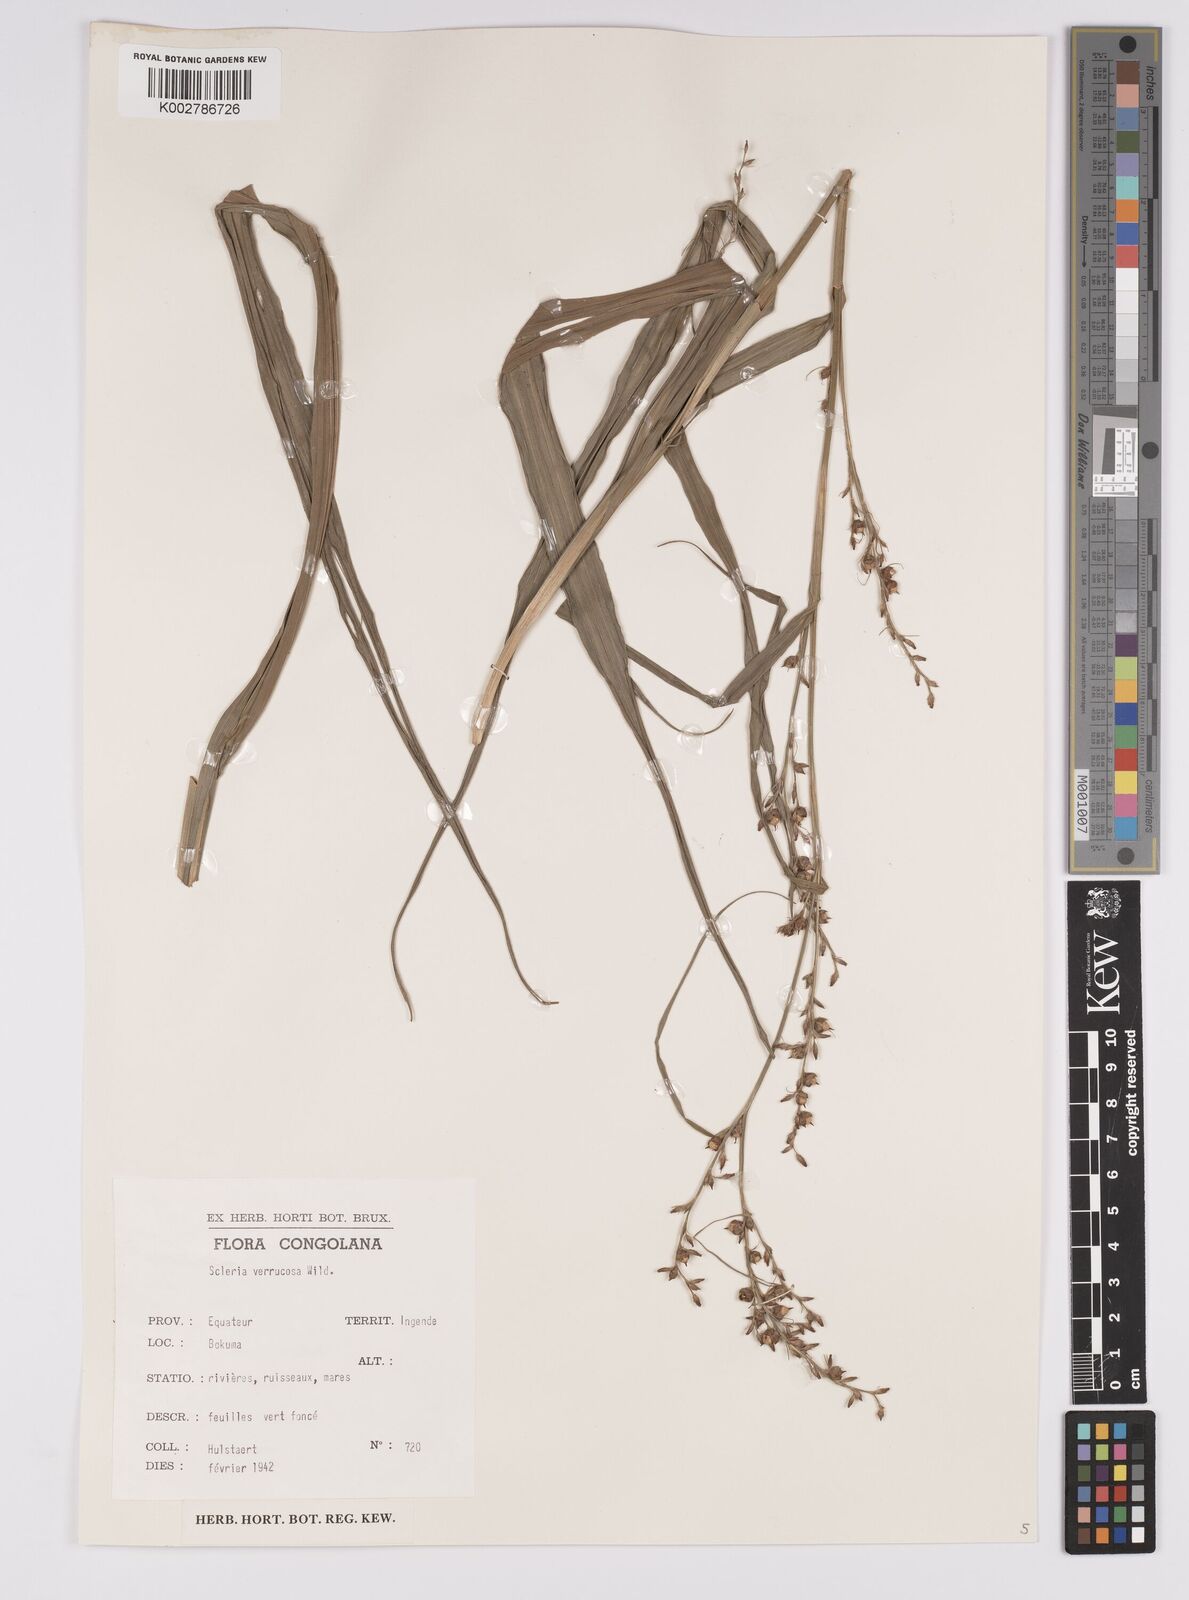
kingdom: Plantae
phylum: Tracheophyta
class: Liliopsida
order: Poales
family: Cyperaceae
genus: Scleria
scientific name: Scleria verrucosa
